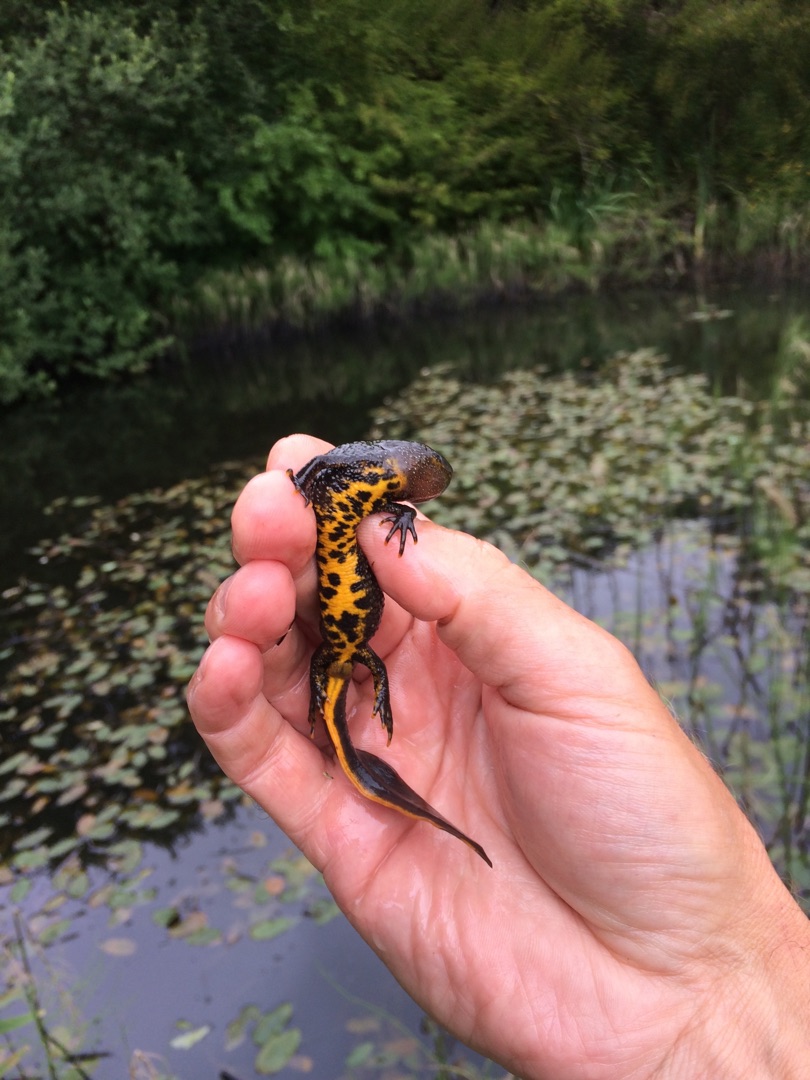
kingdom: Animalia
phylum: Chordata
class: Amphibia
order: Caudata
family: Salamandridae
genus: Triturus
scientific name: Triturus cristatus
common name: Stor vandsalamander
